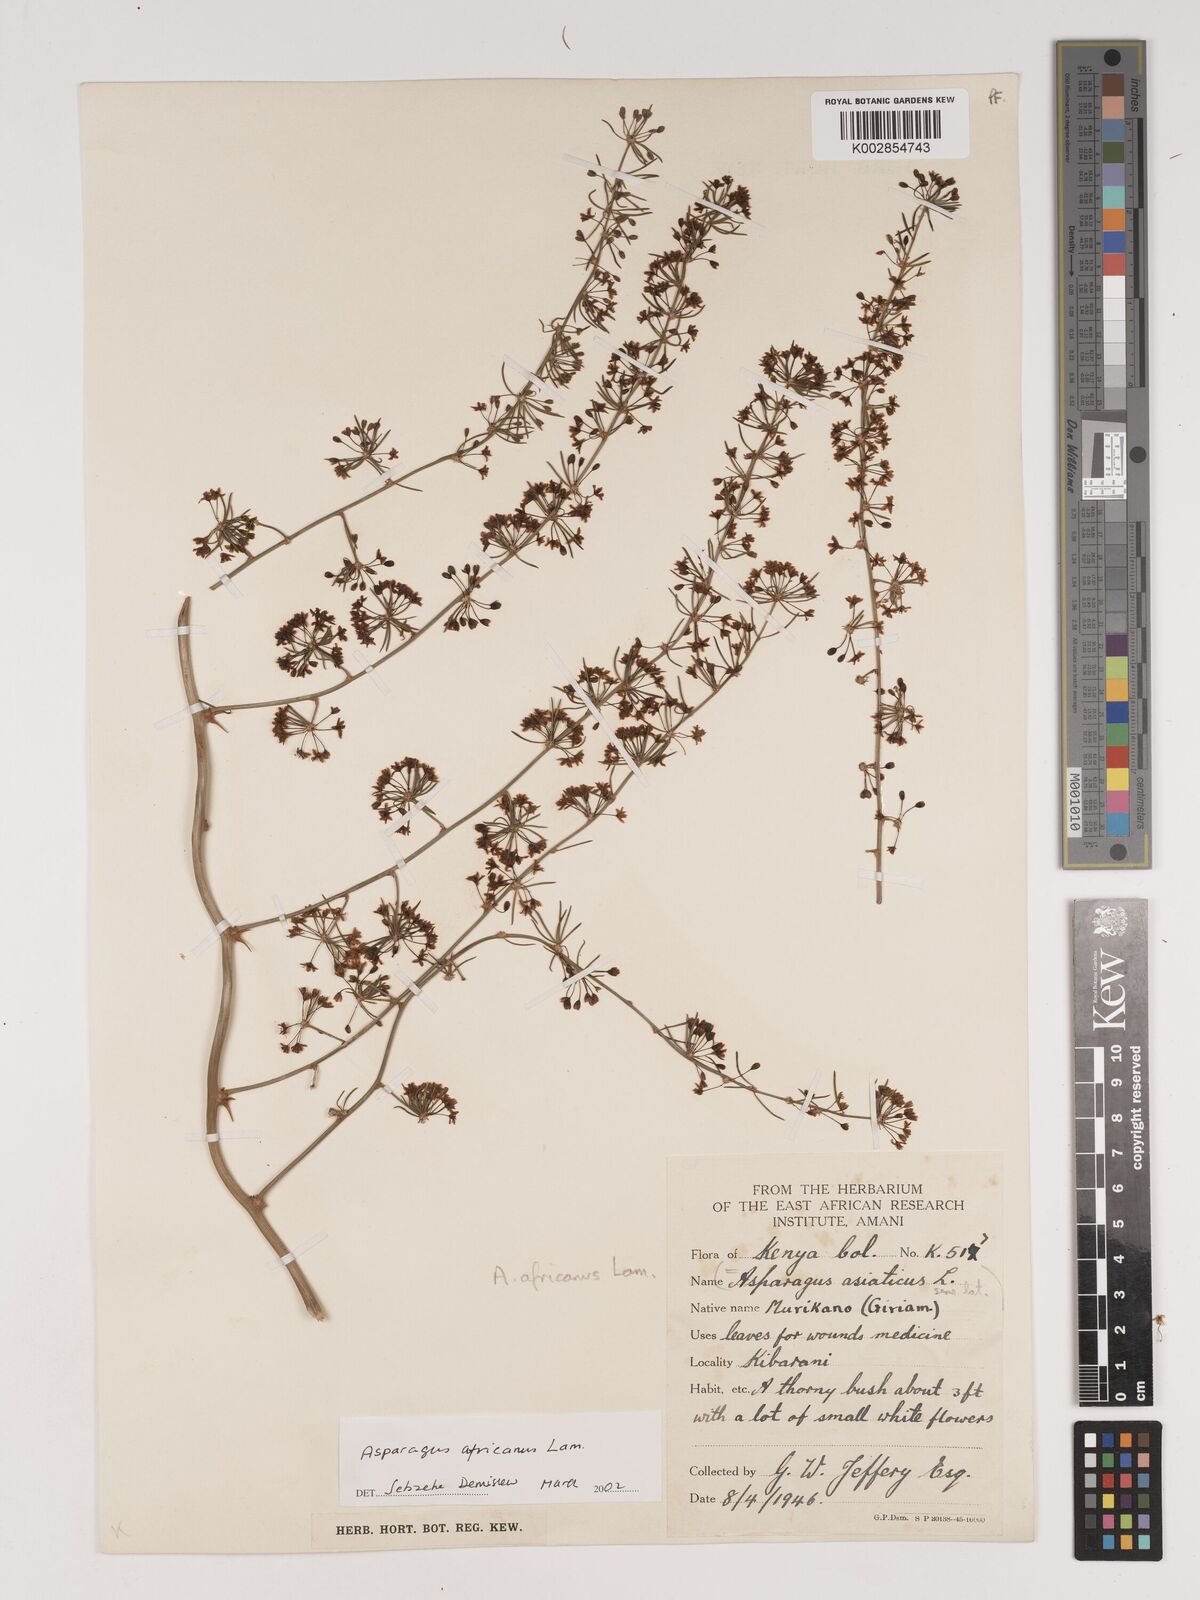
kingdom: Plantae
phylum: Tracheophyta
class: Liliopsida
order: Asparagales
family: Asparagaceae
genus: Asparagus
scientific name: Asparagus africanus
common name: Asparagus-fern
